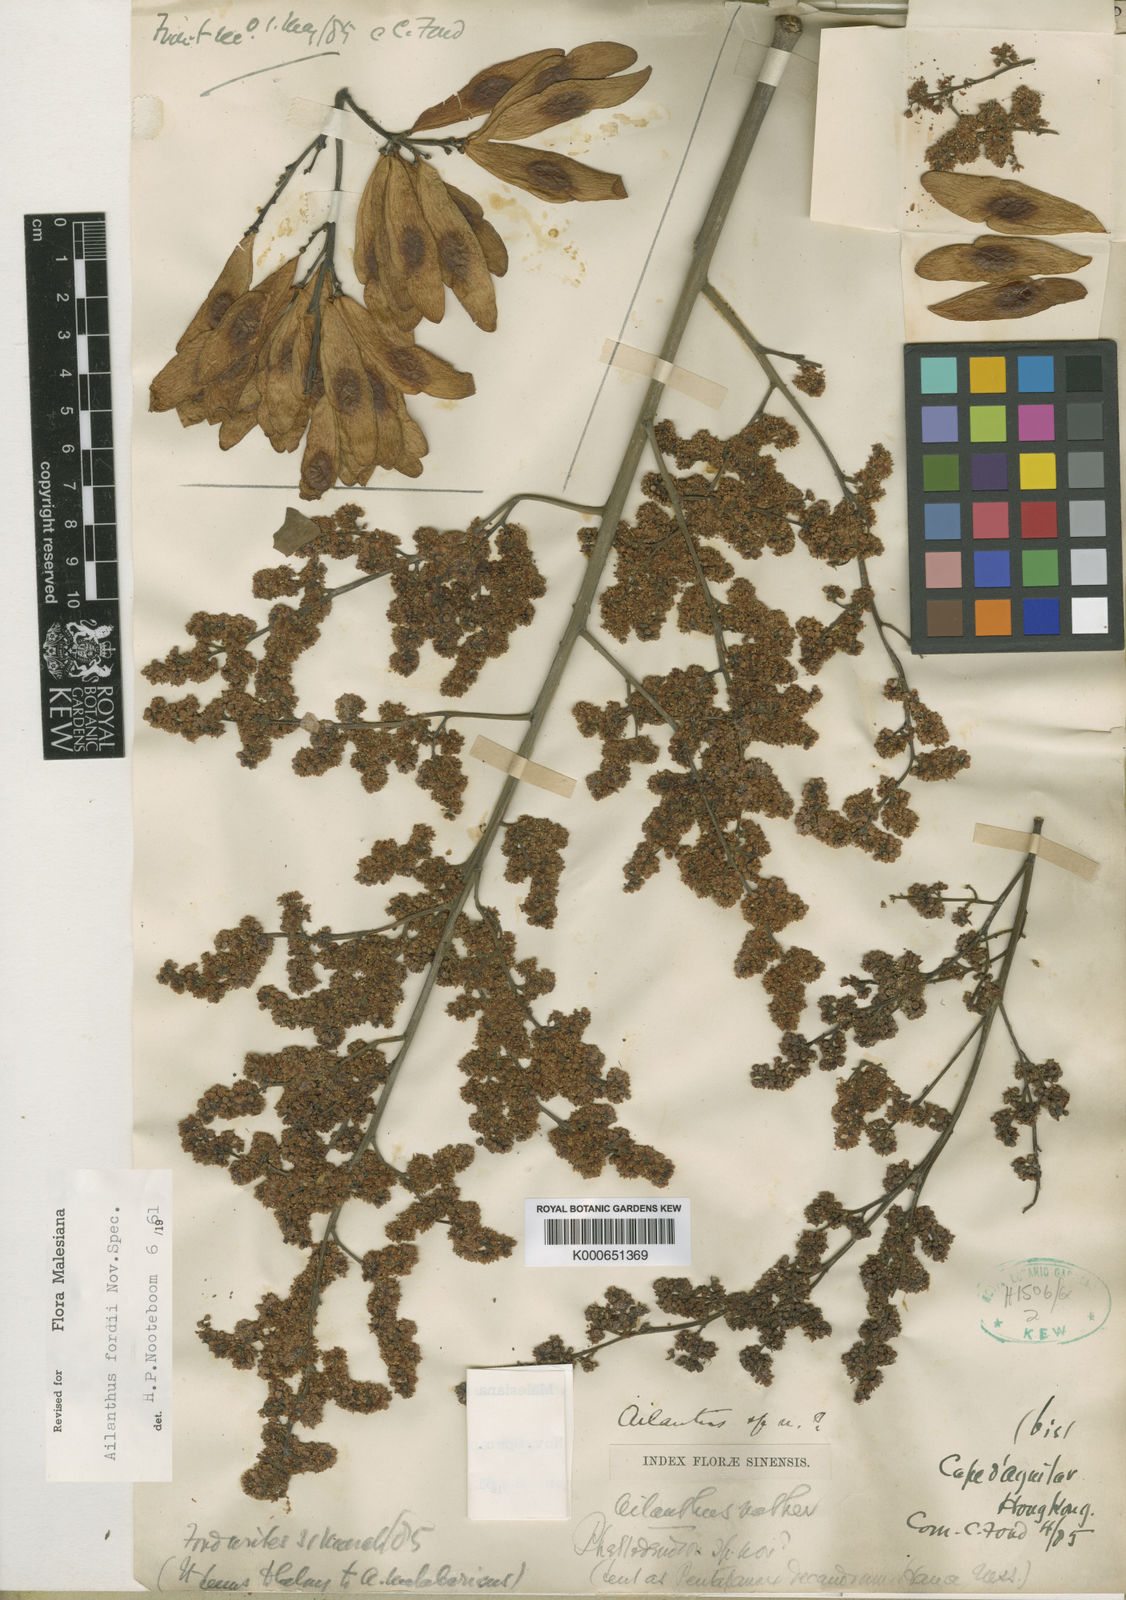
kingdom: Plantae
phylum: Tracheophyta
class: Magnoliopsida
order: Sapindales
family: Simaroubaceae
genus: Ailanthus
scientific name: Ailanthus fordii
